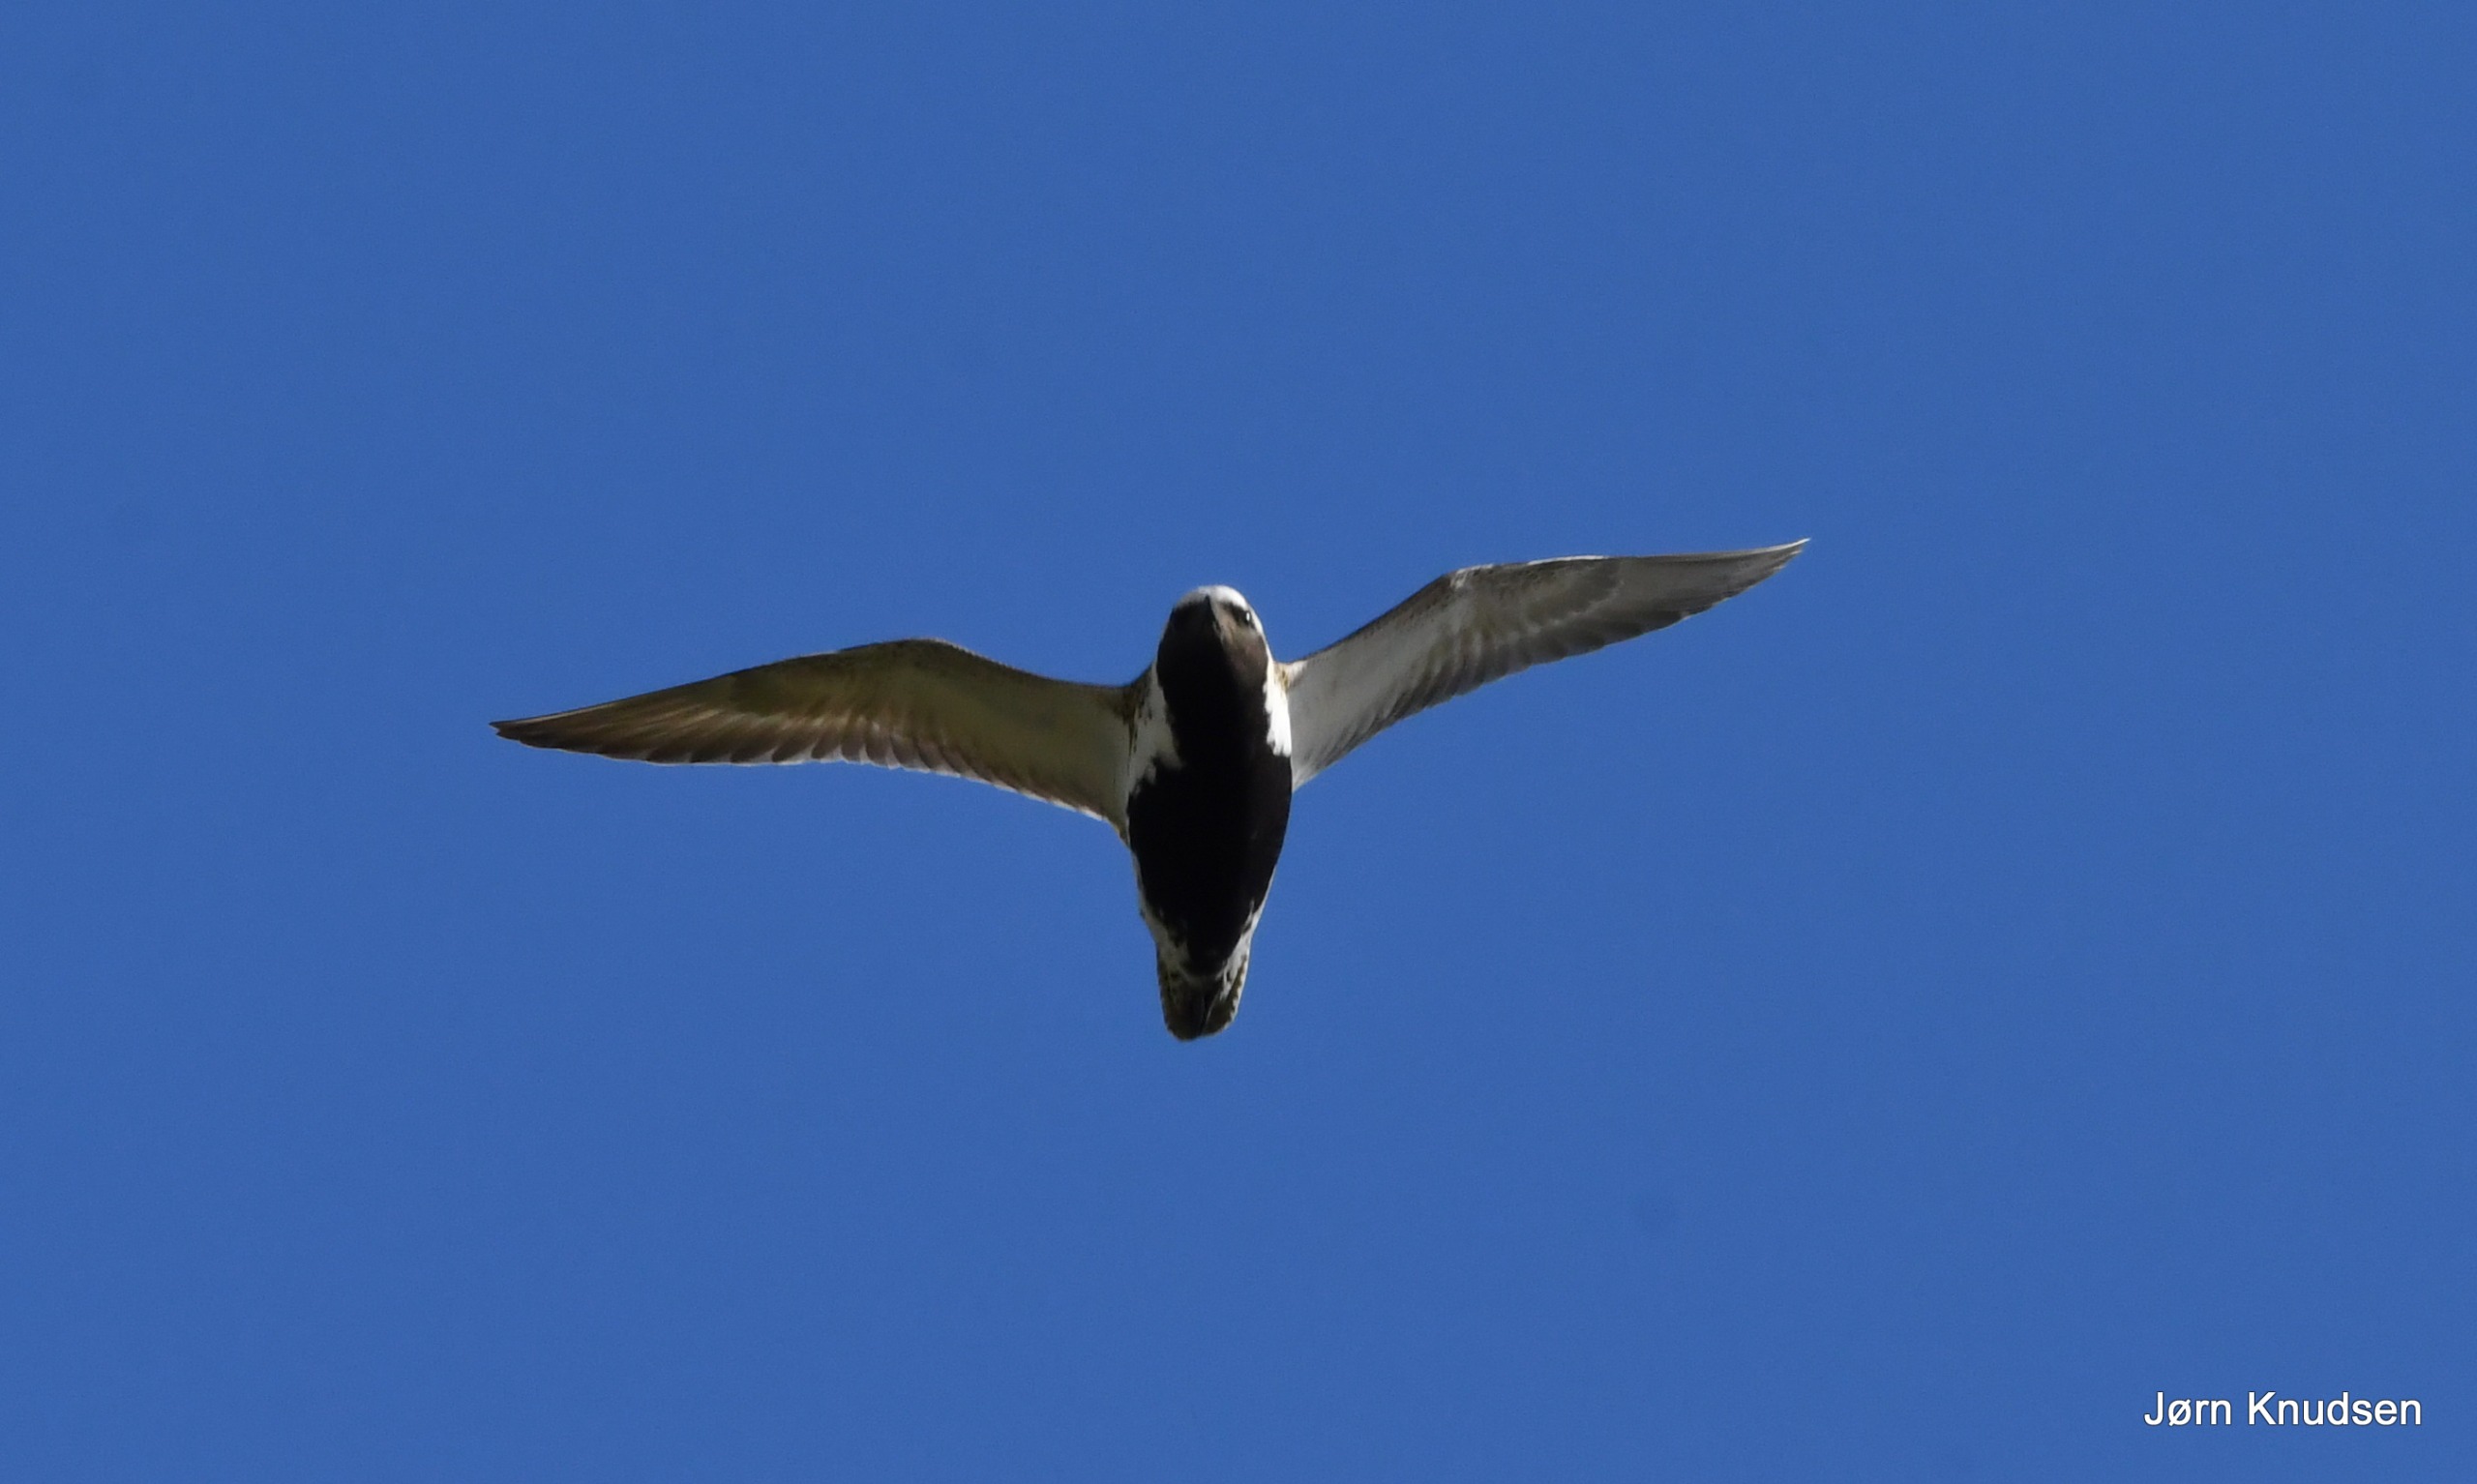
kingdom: Animalia
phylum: Chordata
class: Aves
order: Charadriiformes
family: Charadriidae
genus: Pluvialis
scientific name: Pluvialis apricaria
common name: Hjejle
